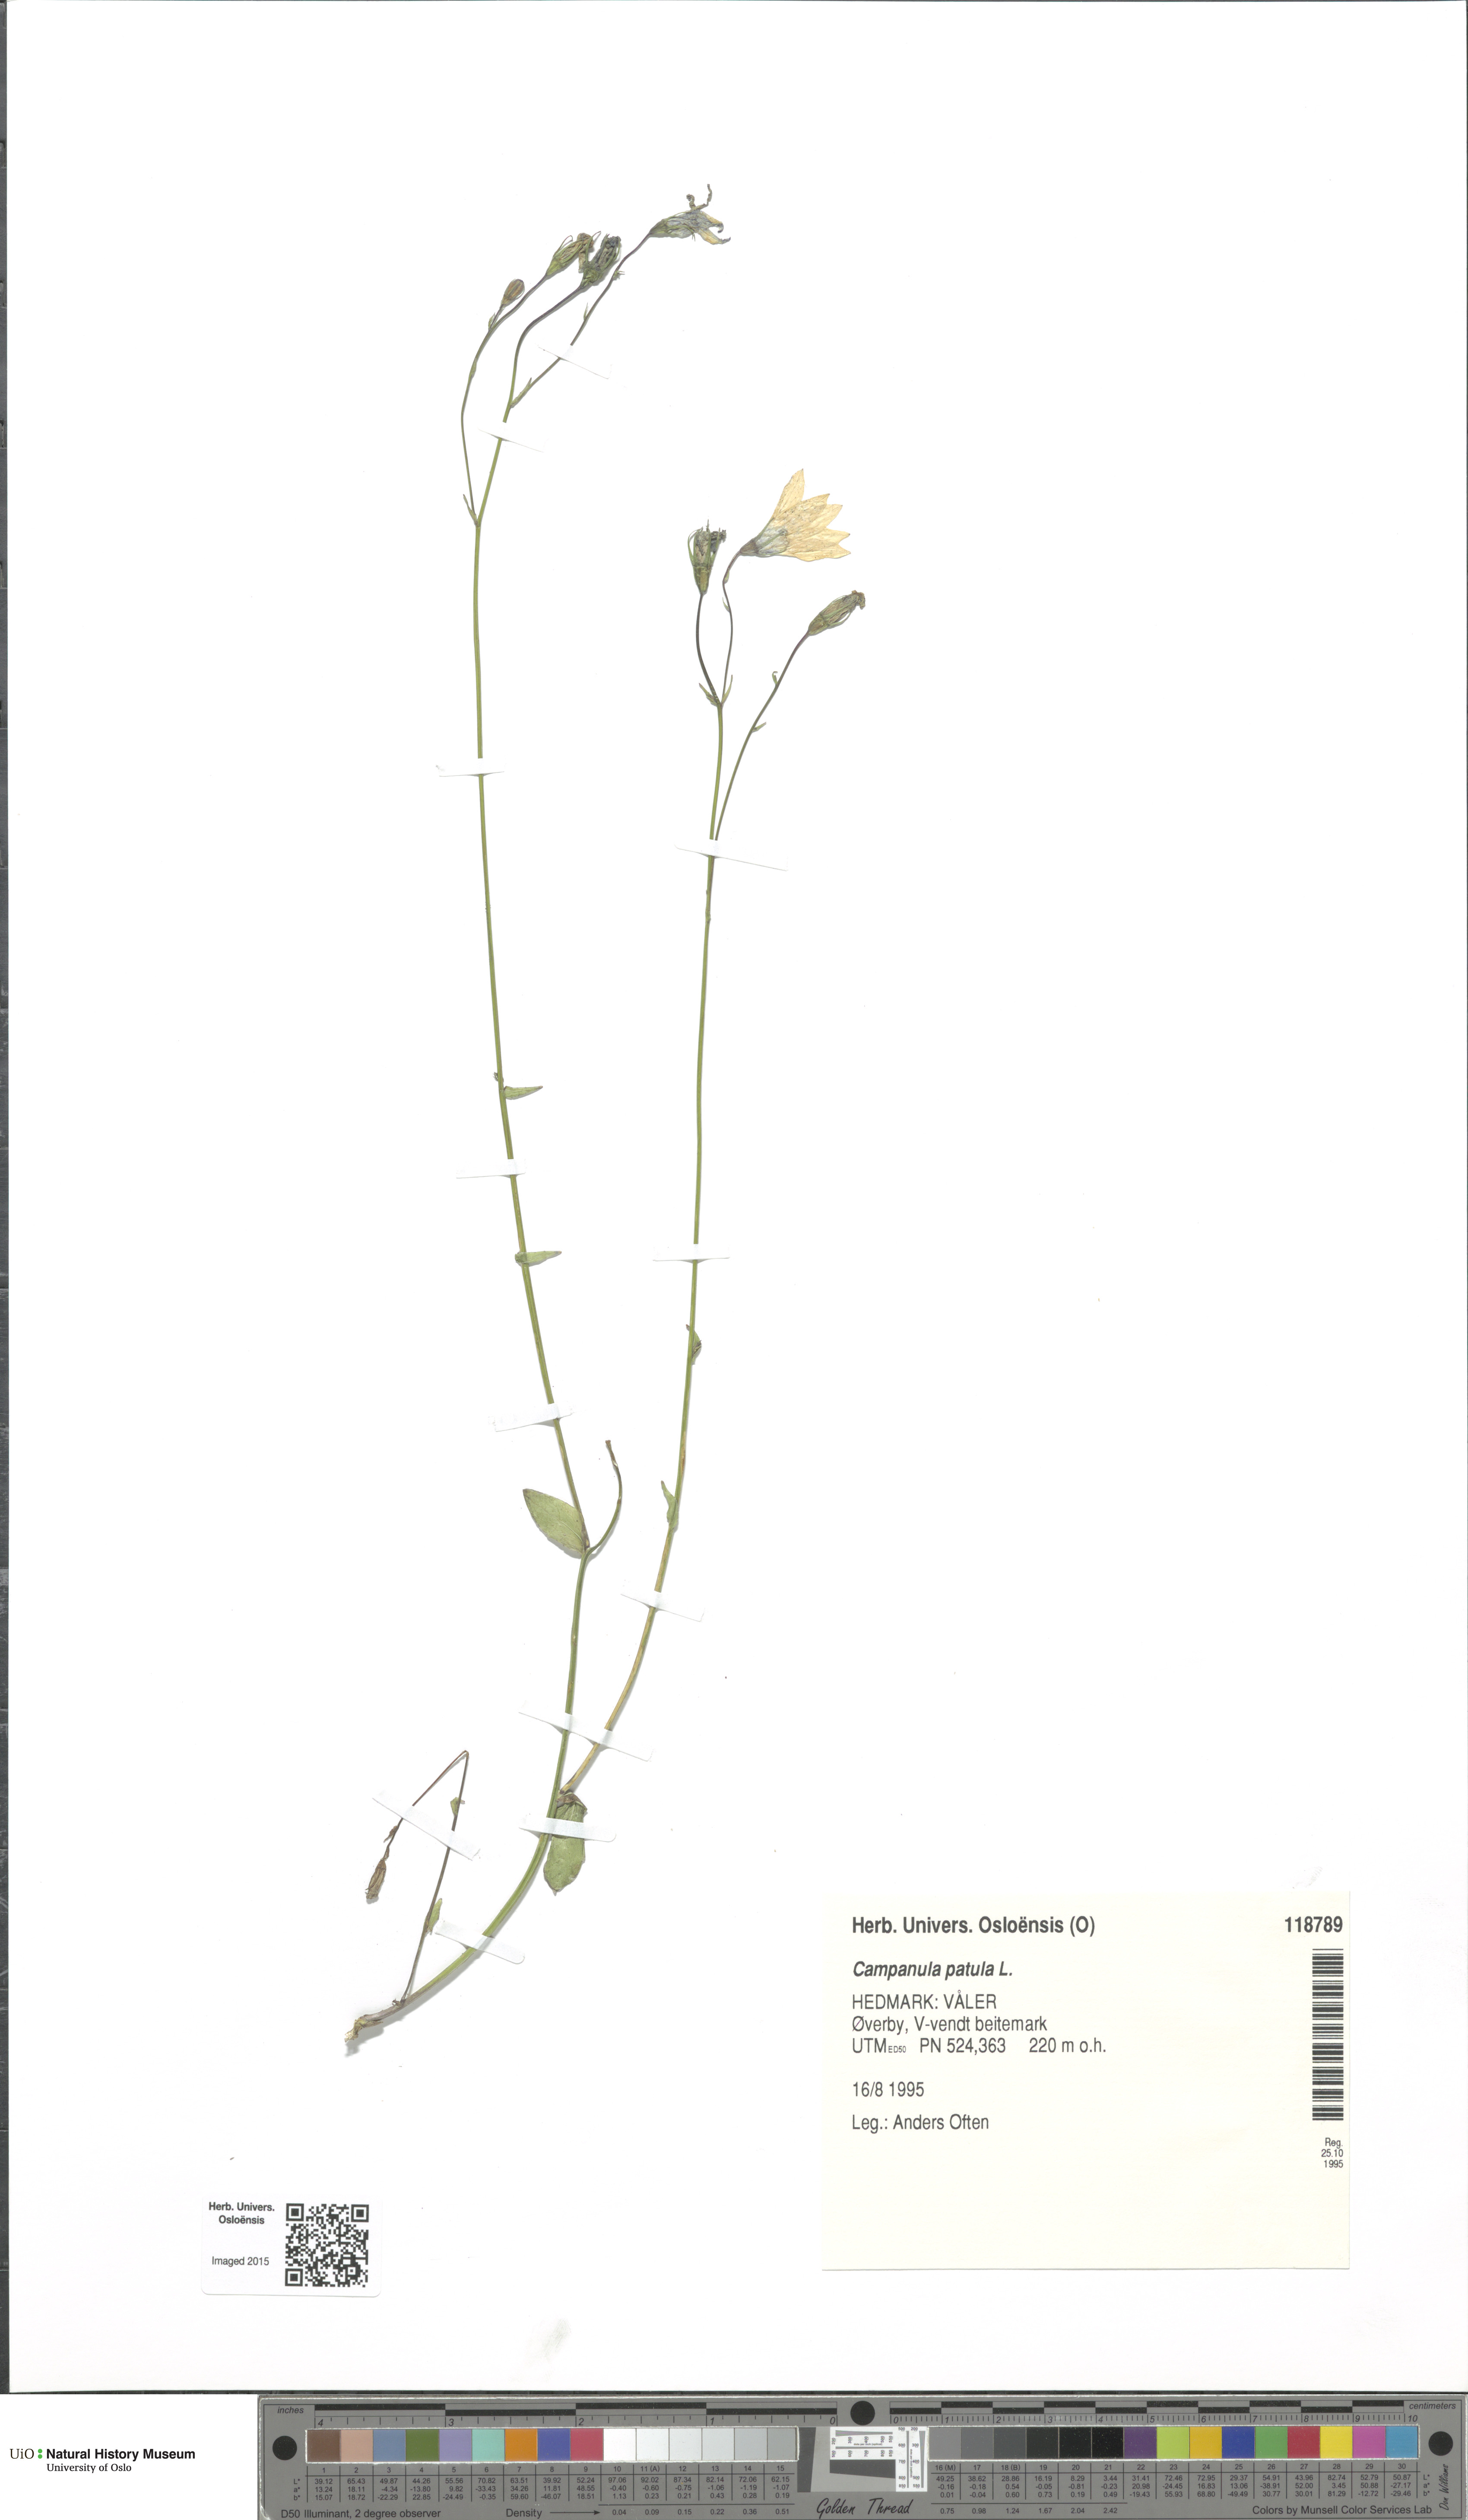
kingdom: Plantae
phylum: Tracheophyta
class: Magnoliopsida
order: Asterales
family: Campanulaceae
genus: Campanula
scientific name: Campanula patula
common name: Spreading bellflower
